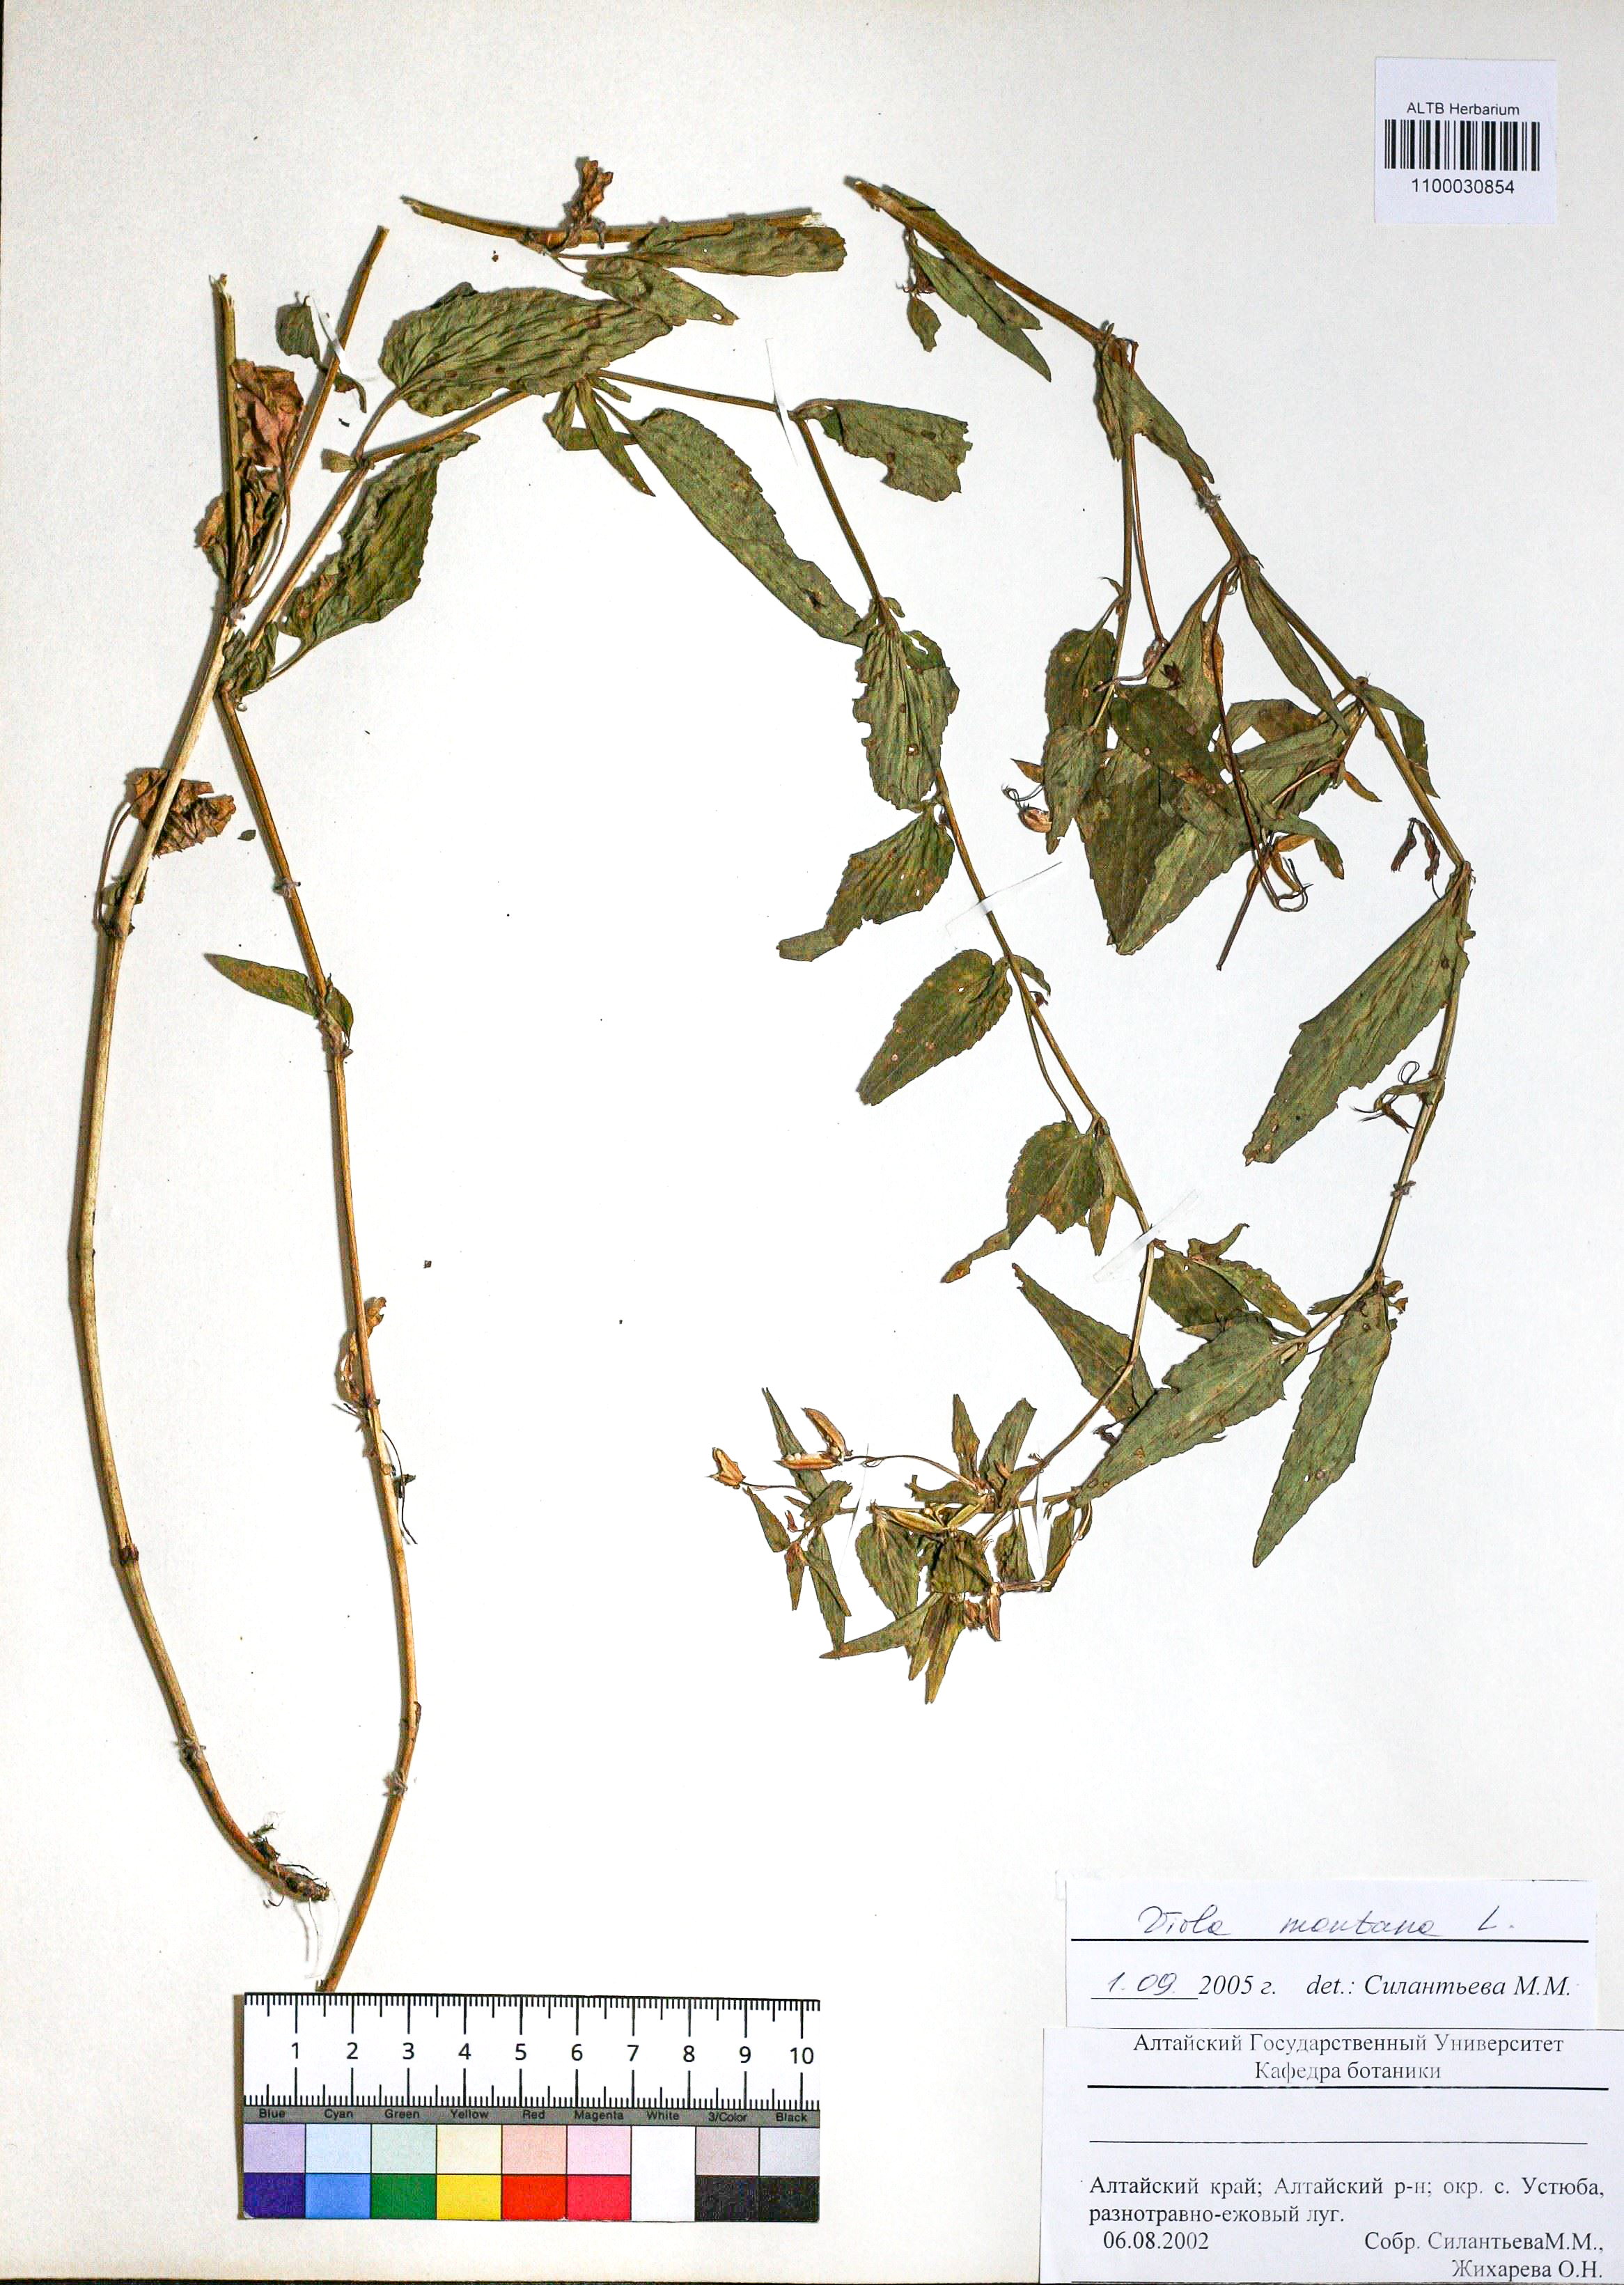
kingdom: Plantae
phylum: Tracheophyta
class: Magnoliopsida
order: Malpighiales
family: Violaceae
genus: Viola
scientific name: Viola ruppii
